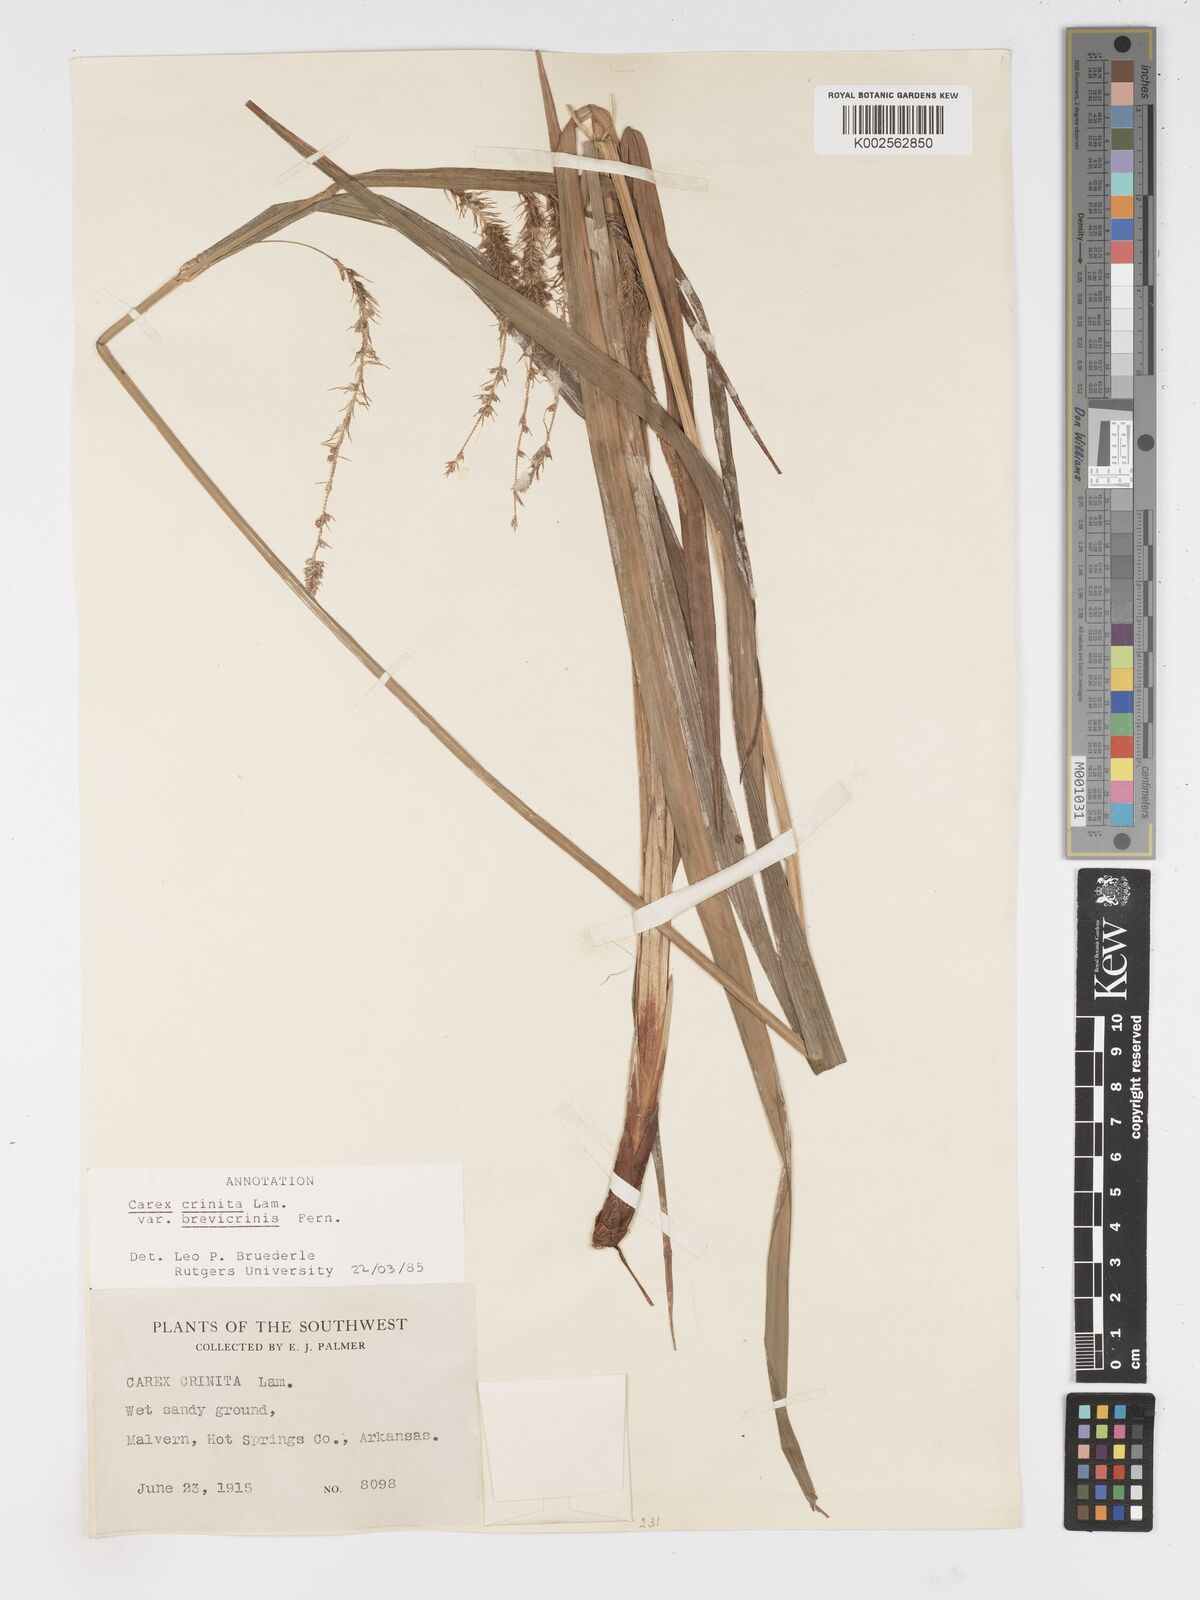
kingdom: Plantae
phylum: Tracheophyta
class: Liliopsida
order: Poales
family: Cyperaceae
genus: Carex
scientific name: Carex crinita
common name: Fringed sedge
